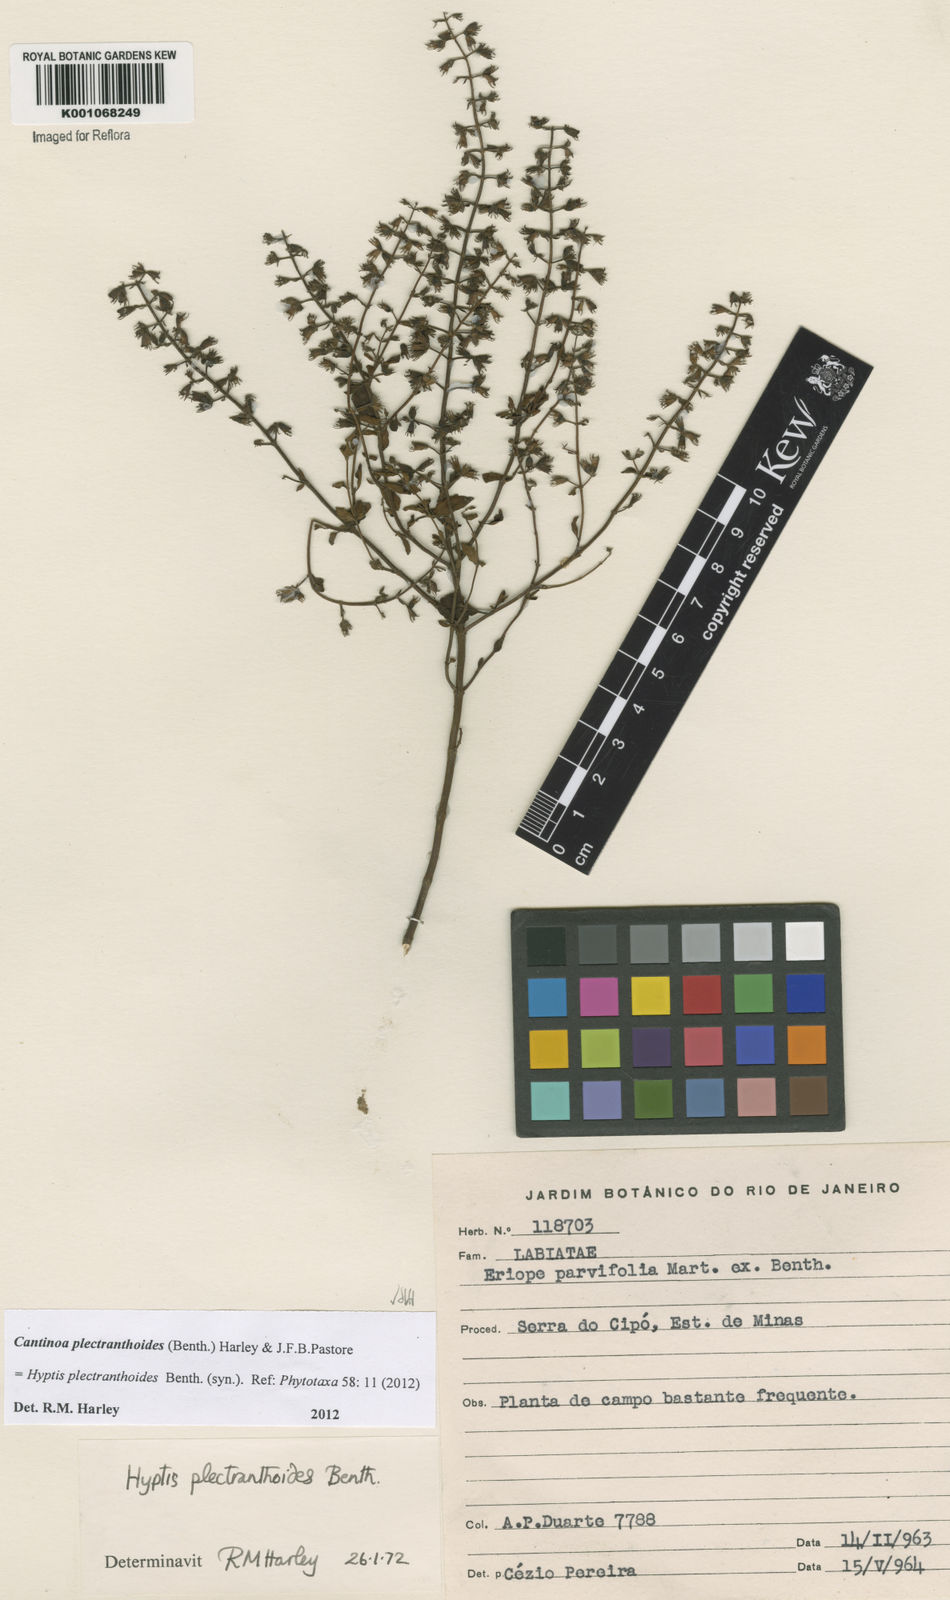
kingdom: Plantae
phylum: Tracheophyta
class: Magnoliopsida
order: Lamiales
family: Lamiaceae
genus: Cantinoa
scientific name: Cantinoa plectranthoides
